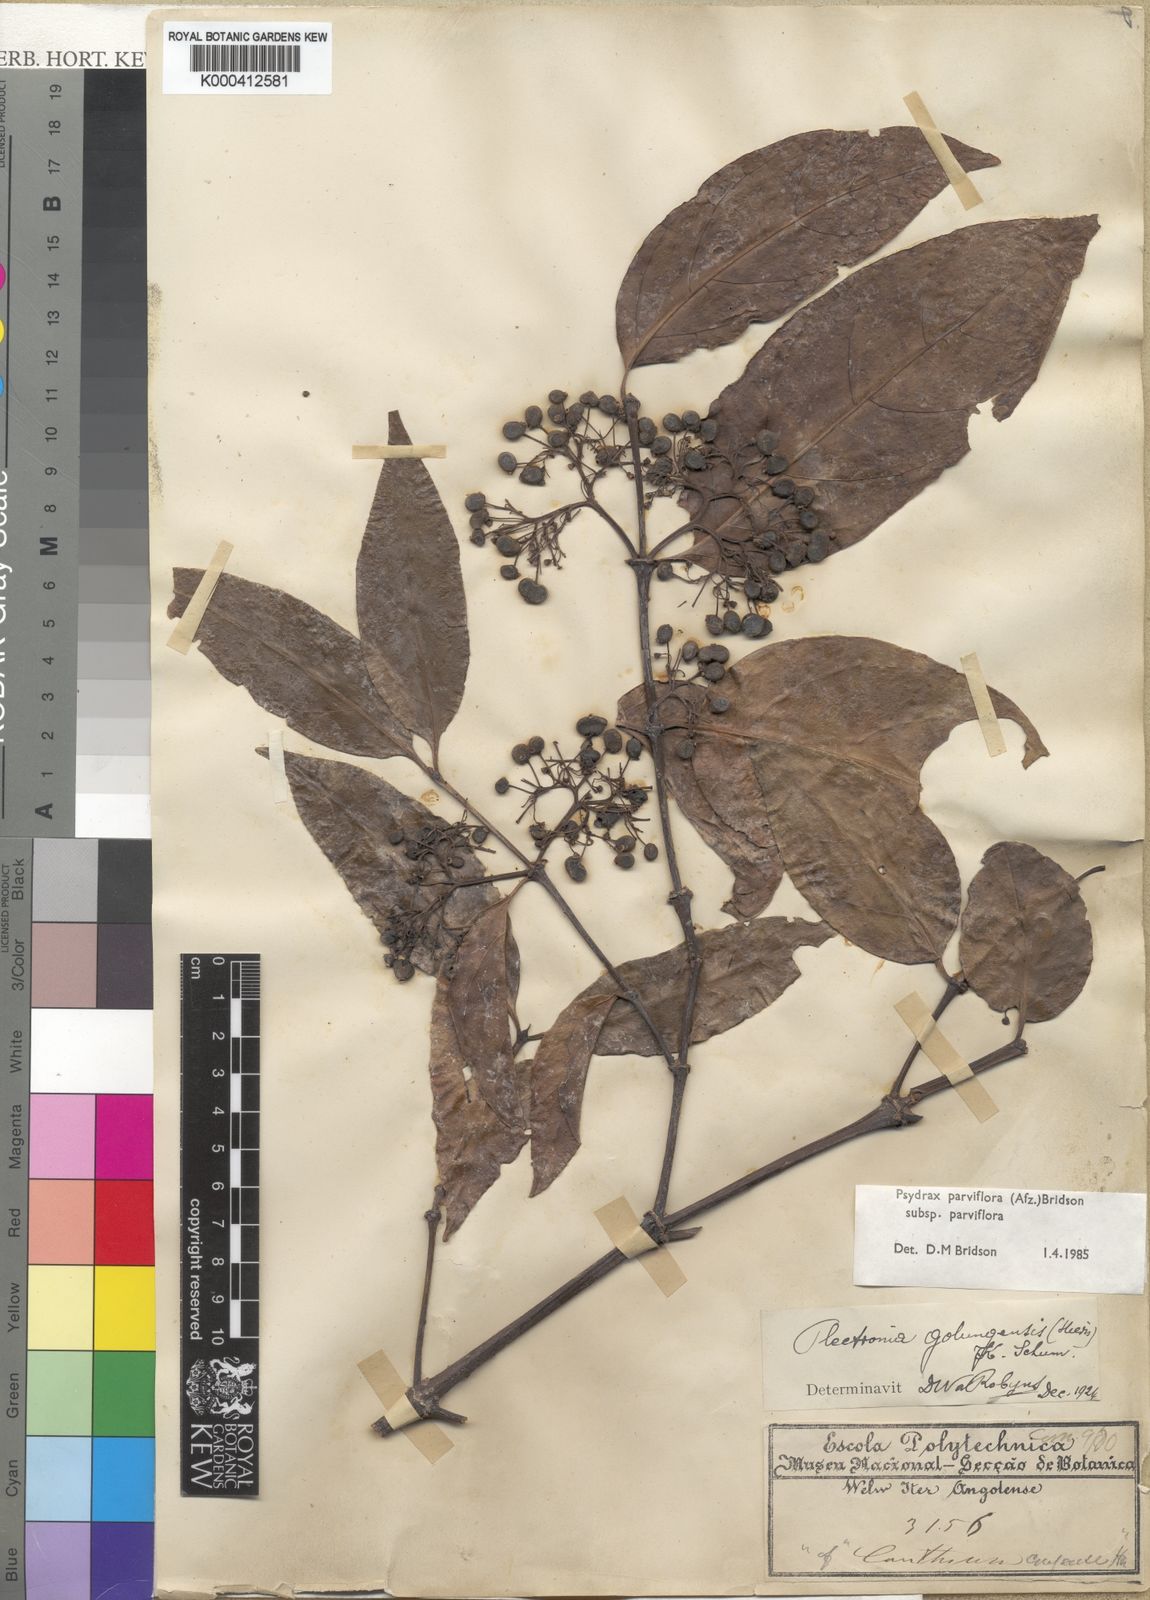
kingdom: Plantae
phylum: Tracheophyta
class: Magnoliopsida
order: Gentianales
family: Rubiaceae
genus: Psydrax
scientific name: Psydrax parviflorus
